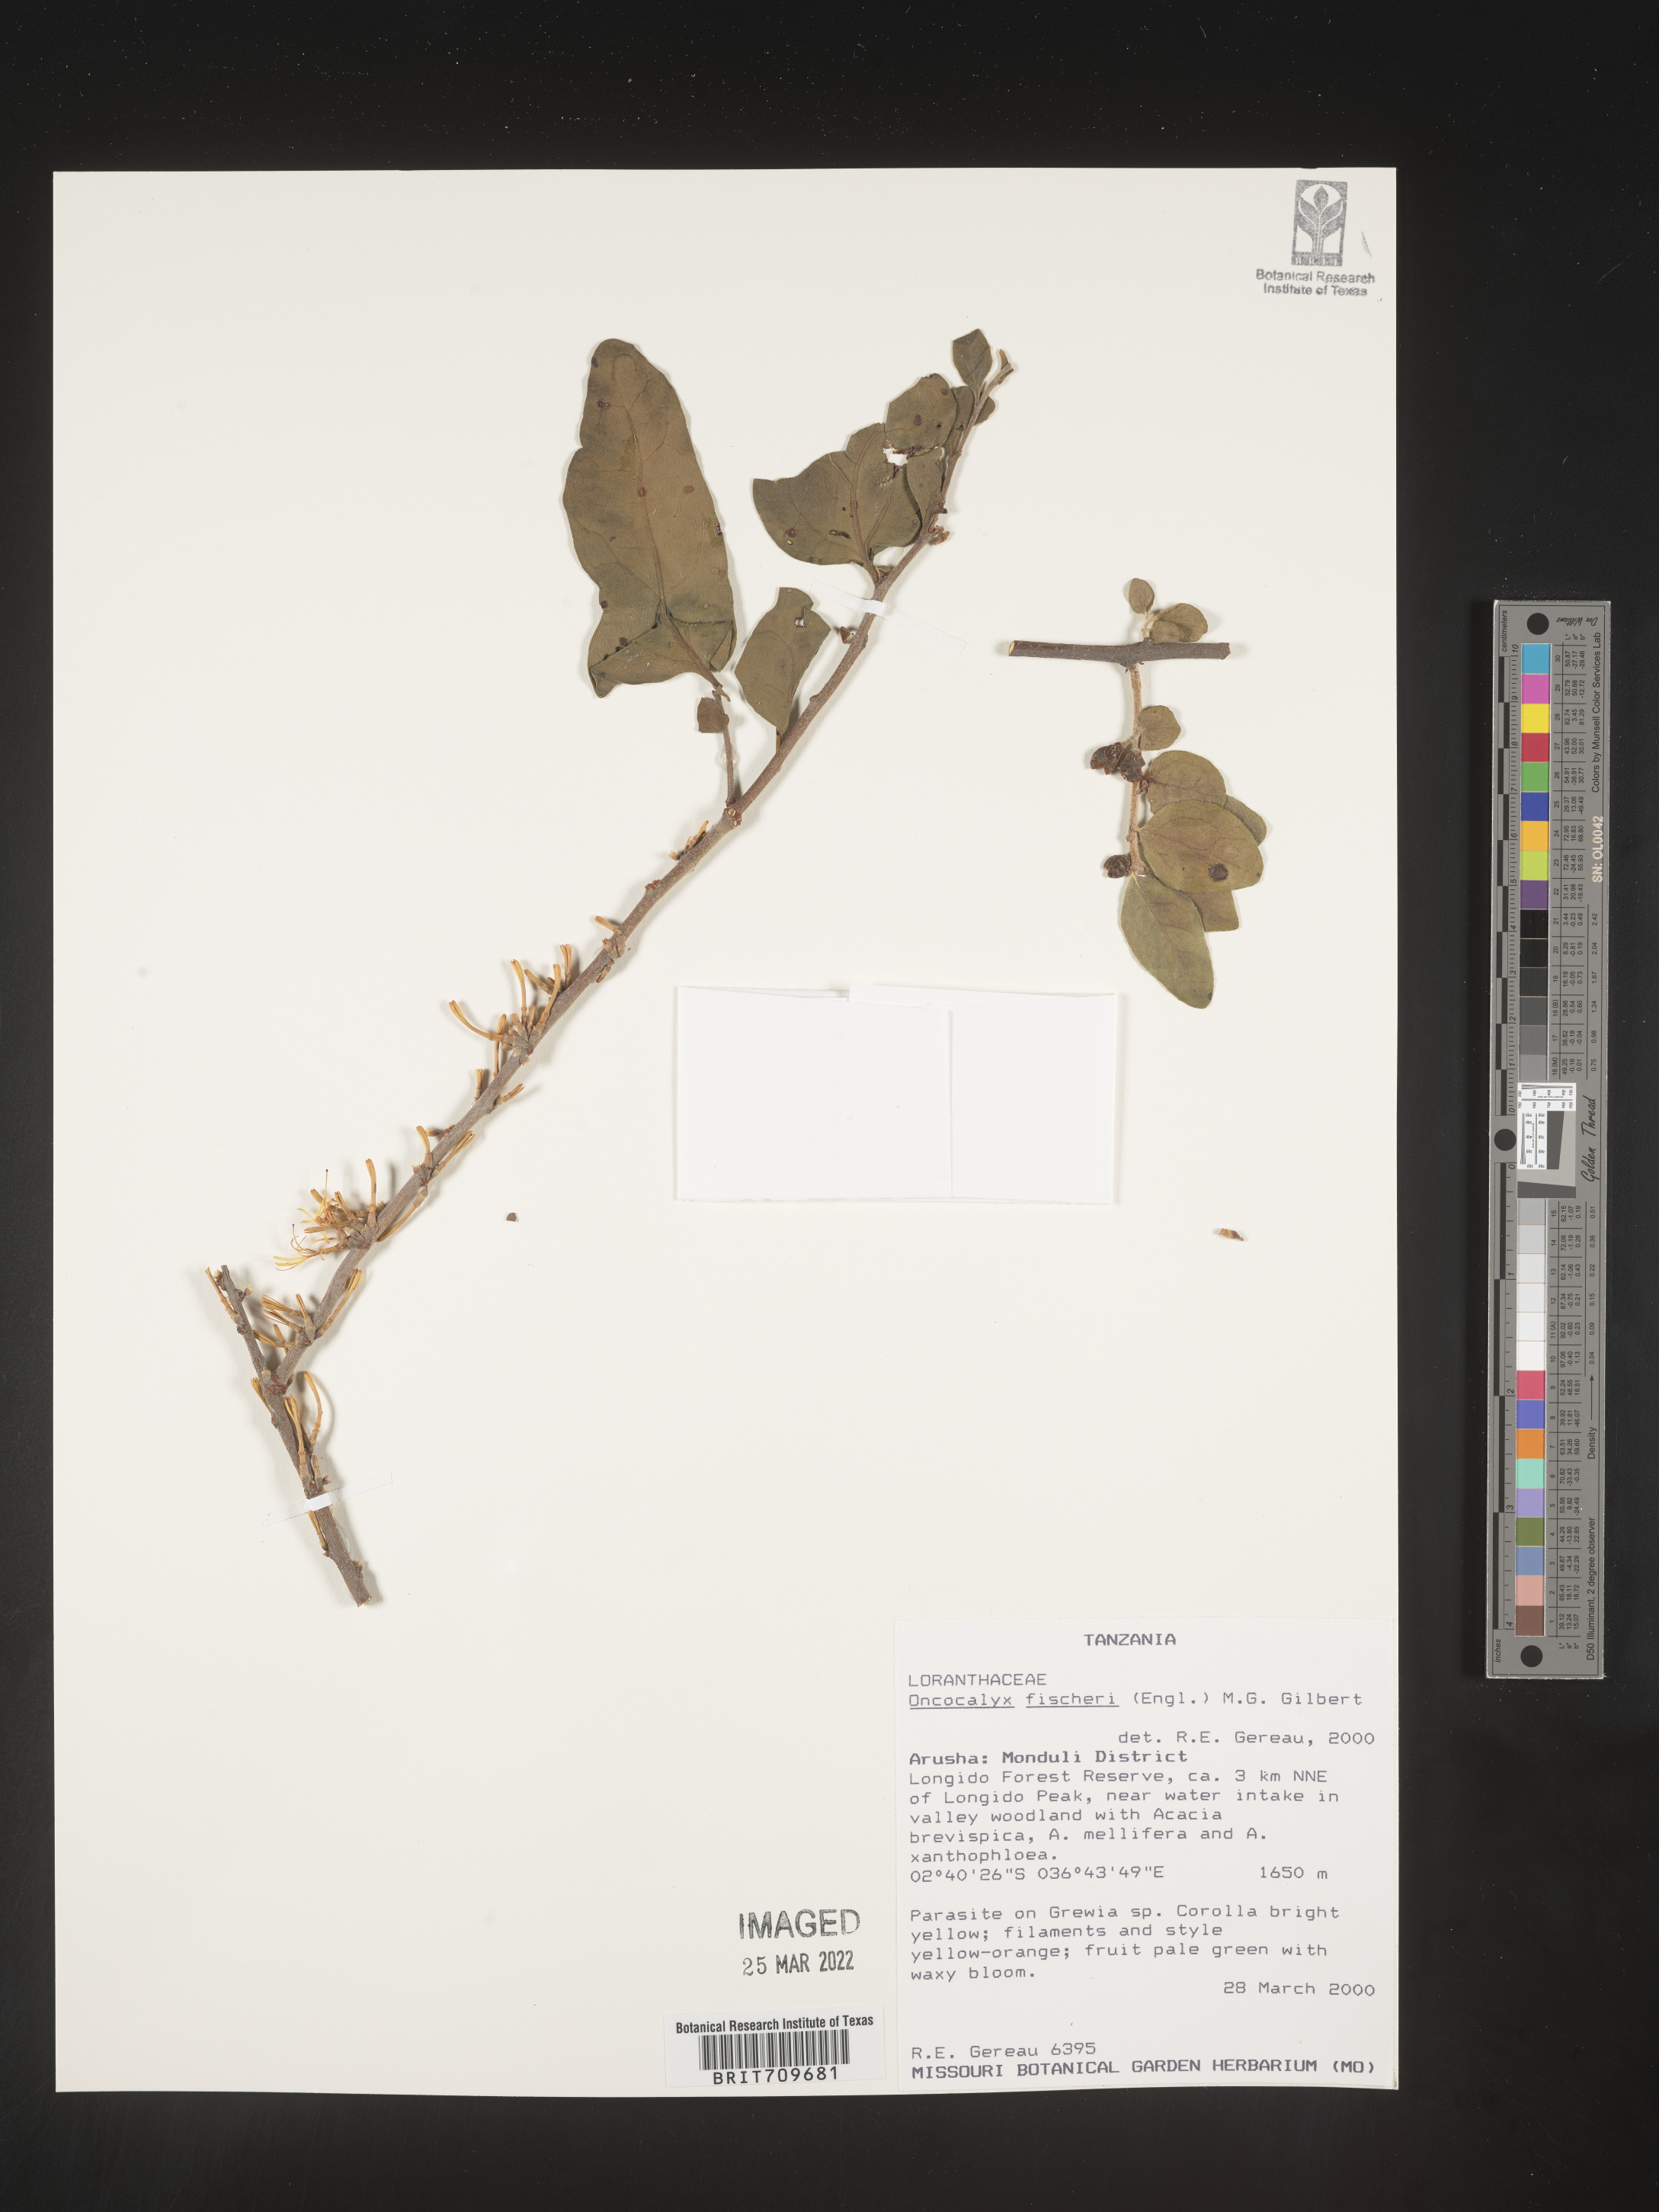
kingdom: Plantae
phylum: Tracheophyta
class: Magnoliopsida
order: Santalales
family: Loranthaceae
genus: Oncocalyx
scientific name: Oncocalyx
